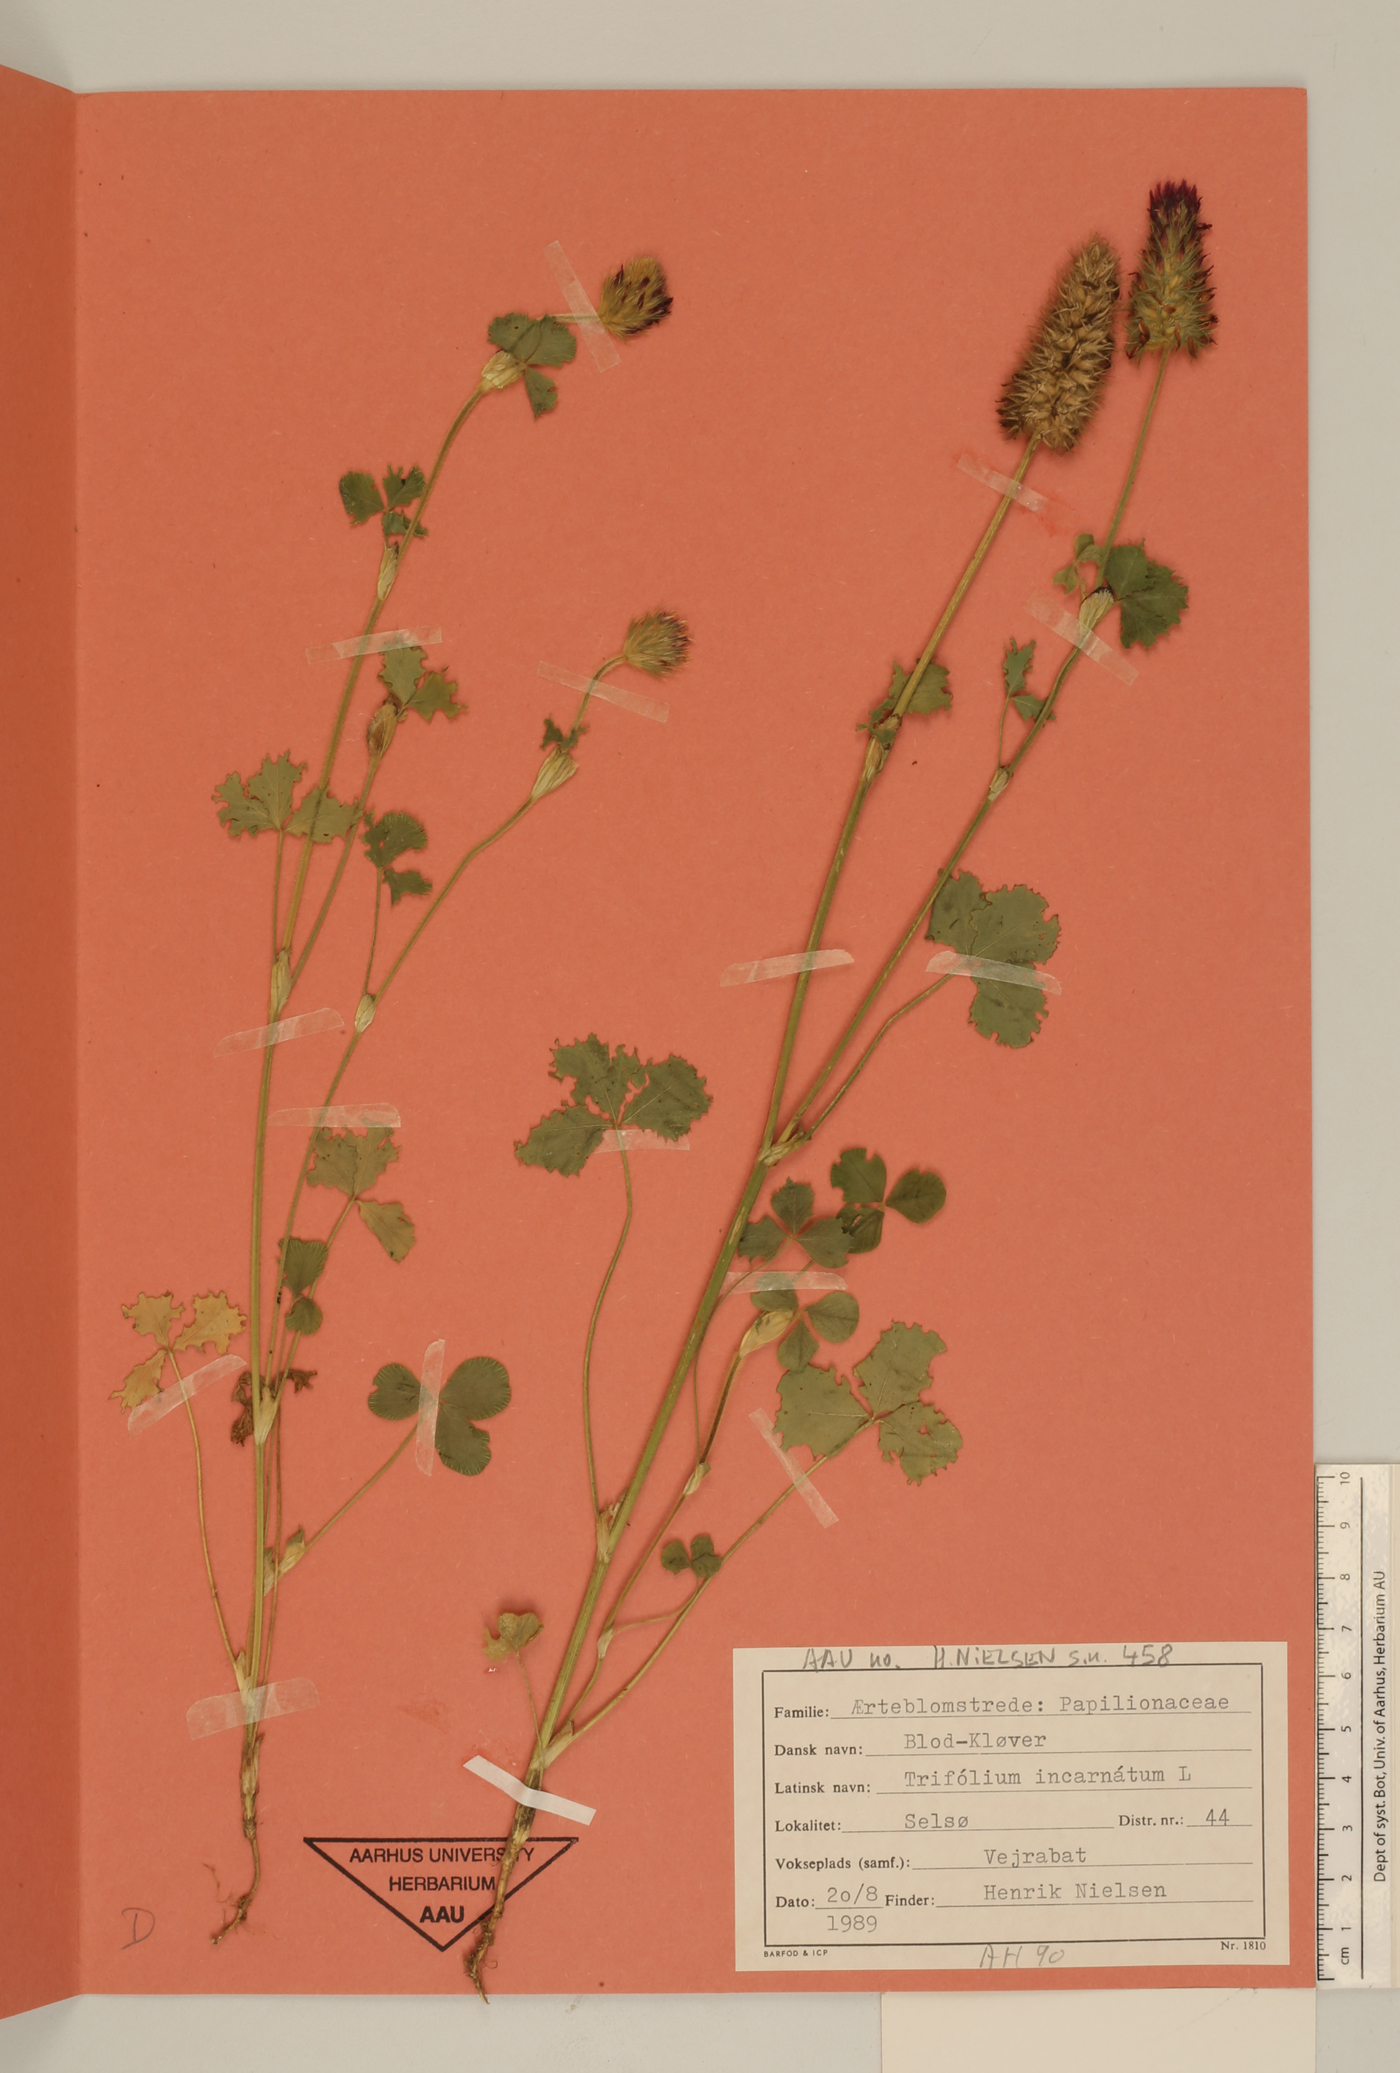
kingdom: Plantae
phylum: Tracheophyta
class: Magnoliopsida
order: Fabales
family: Fabaceae
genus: Trifolium
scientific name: Trifolium incarnatum
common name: Crimson clover
